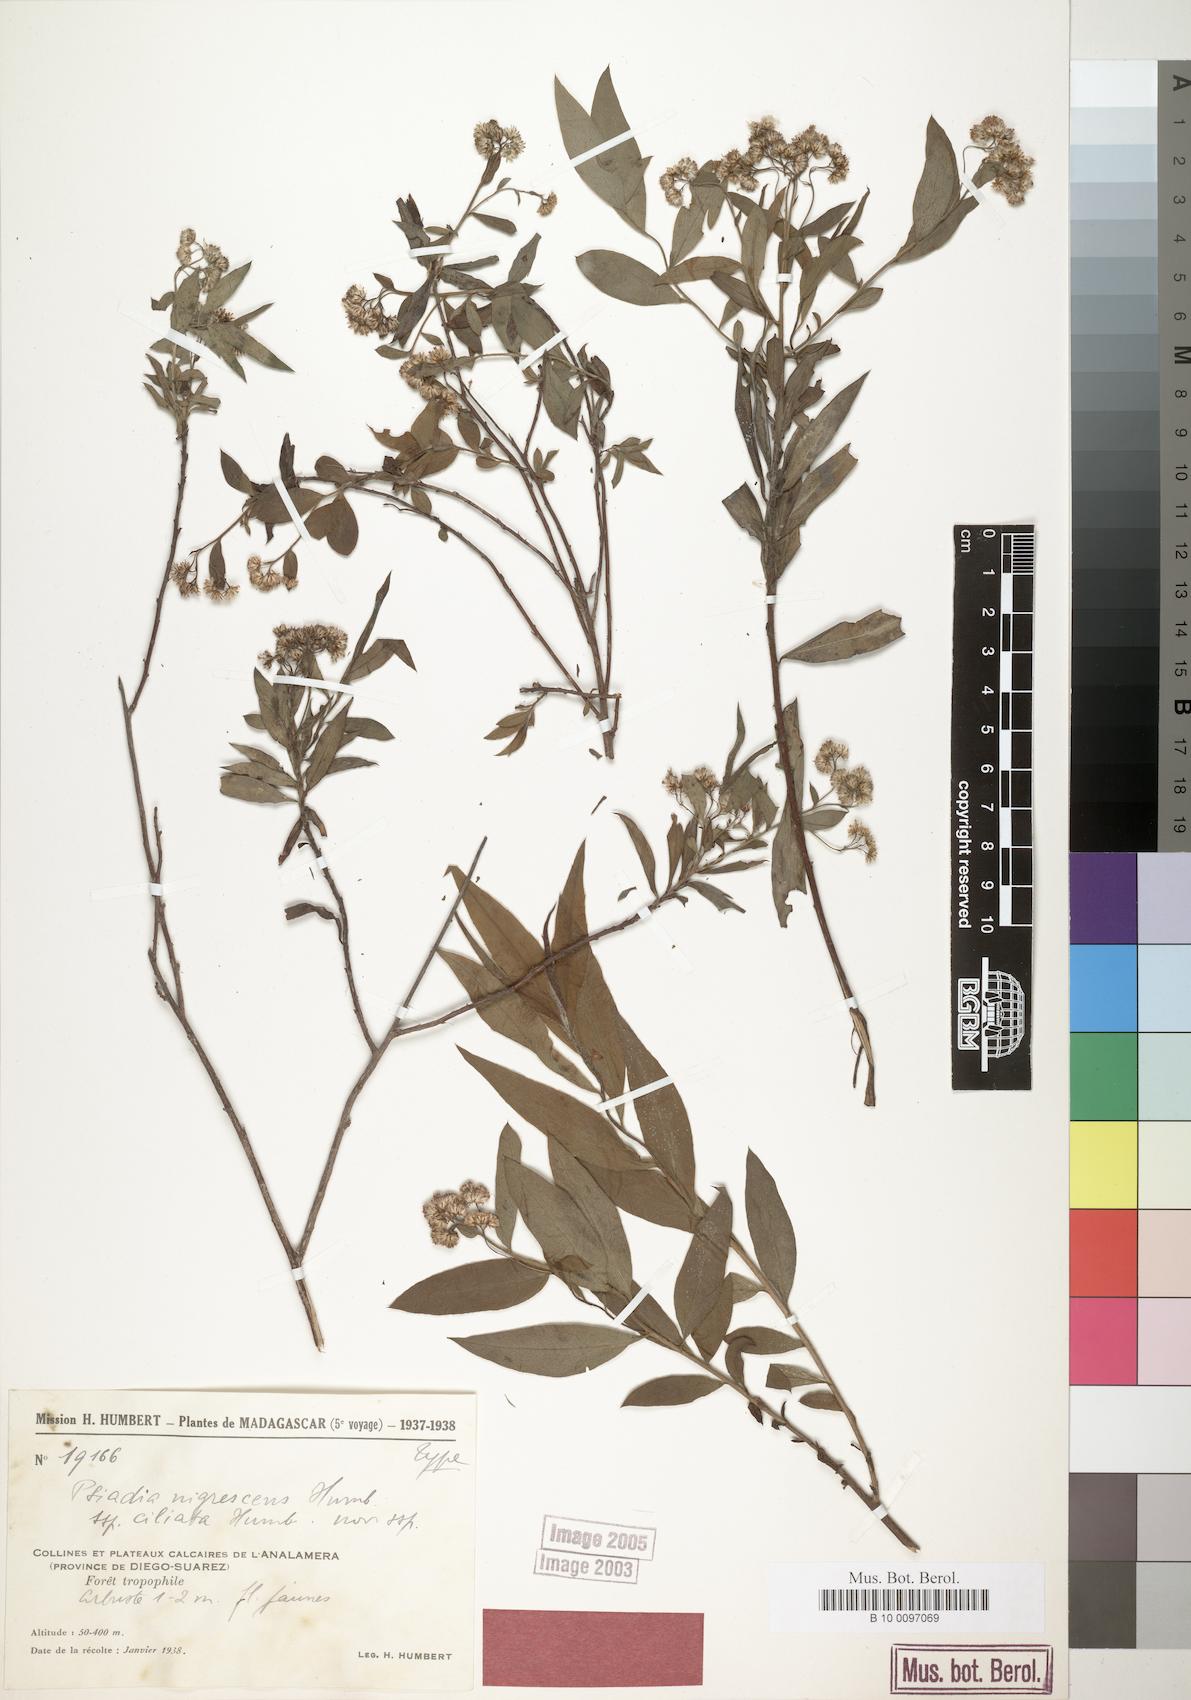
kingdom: Plantae
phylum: Tracheophyta
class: Magnoliopsida
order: Asterales
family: Asteraceae
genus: Psiadia
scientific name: Psiadia nigrescens
